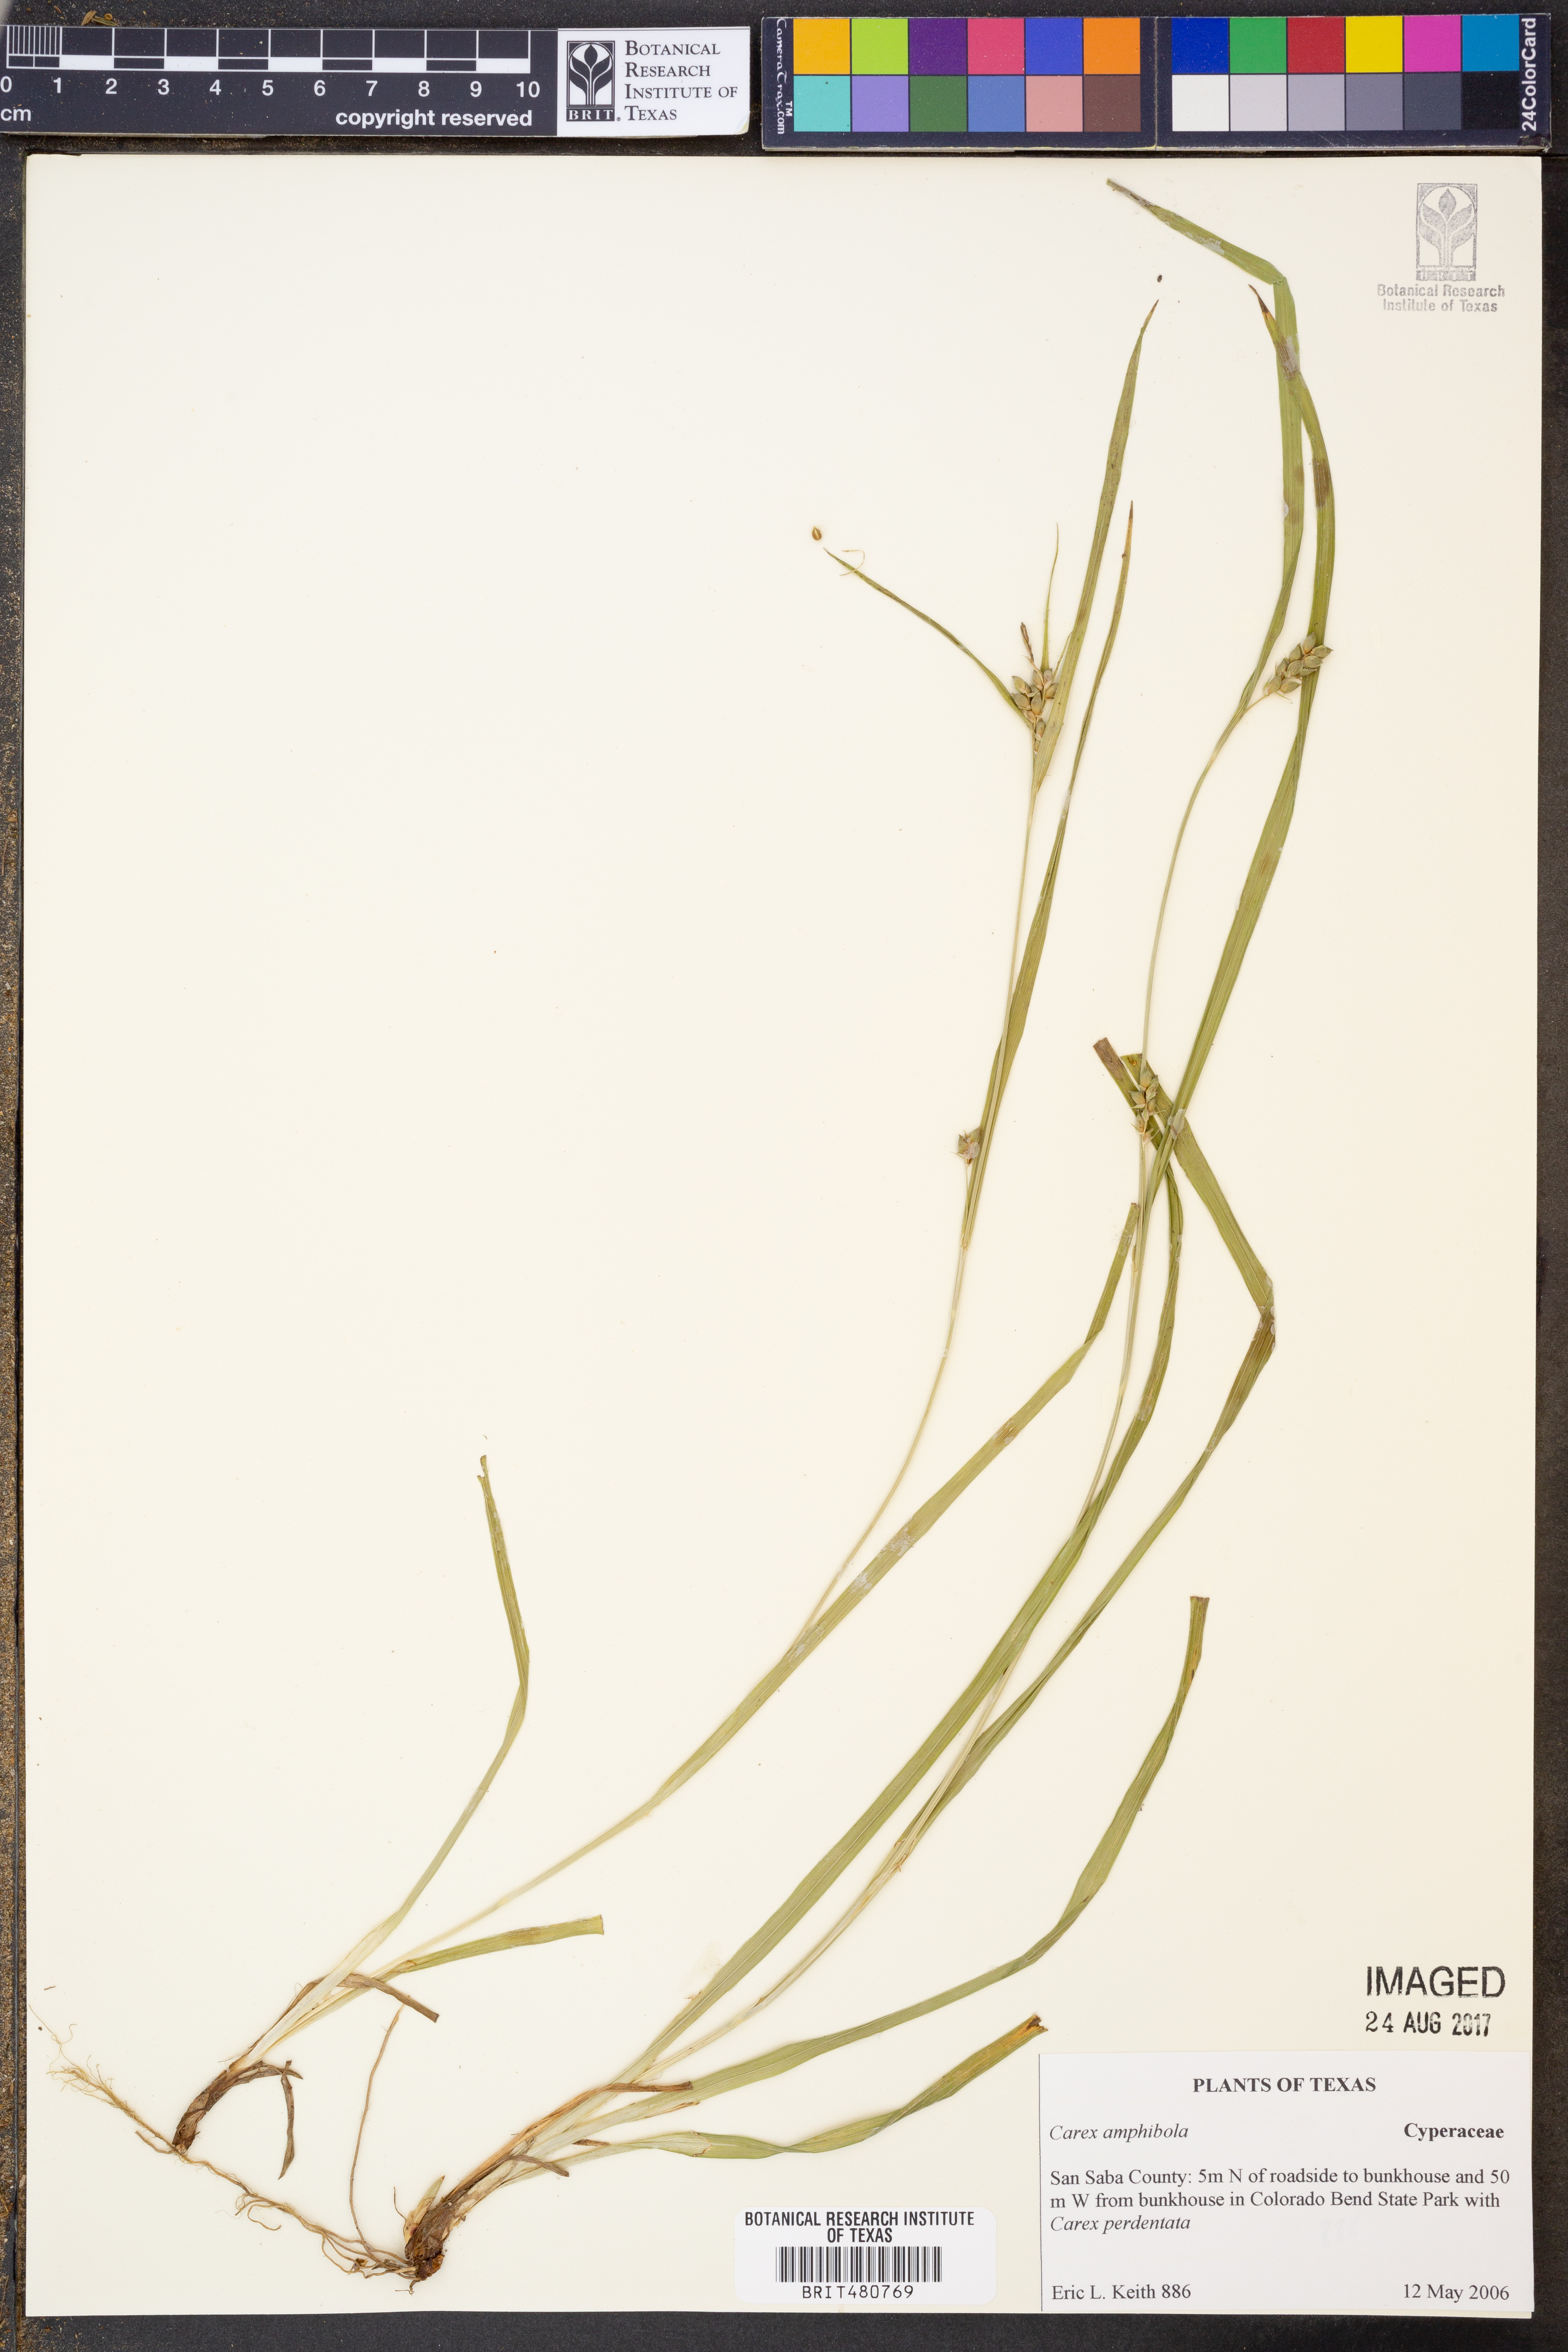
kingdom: Plantae
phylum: Tracheophyta
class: Liliopsida
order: Poales
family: Cyperaceae
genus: Carex
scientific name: Carex amphibola
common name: Amphibious sedge
